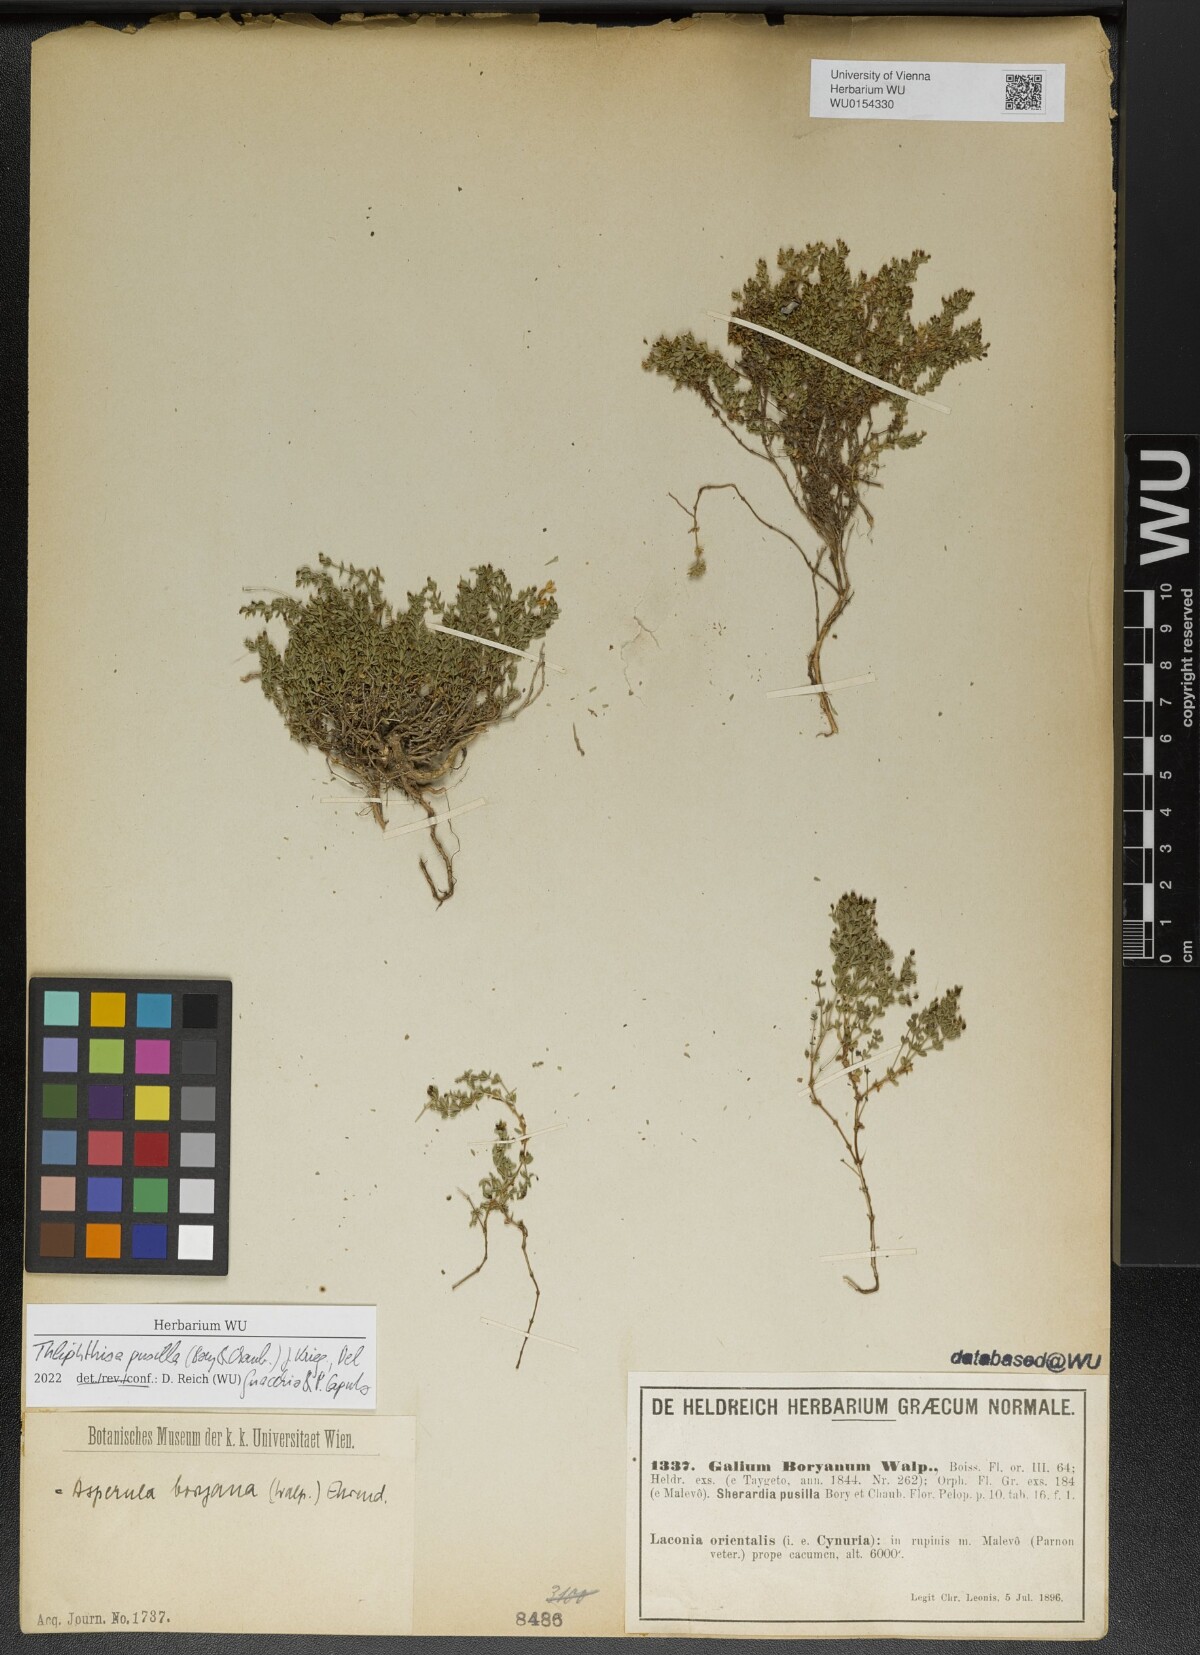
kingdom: Plantae
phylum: Tracheophyta
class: Magnoliopsida
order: Gentianales
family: Rubiaceae
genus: Thliphthisa
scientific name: Thliphthisa pusilla
